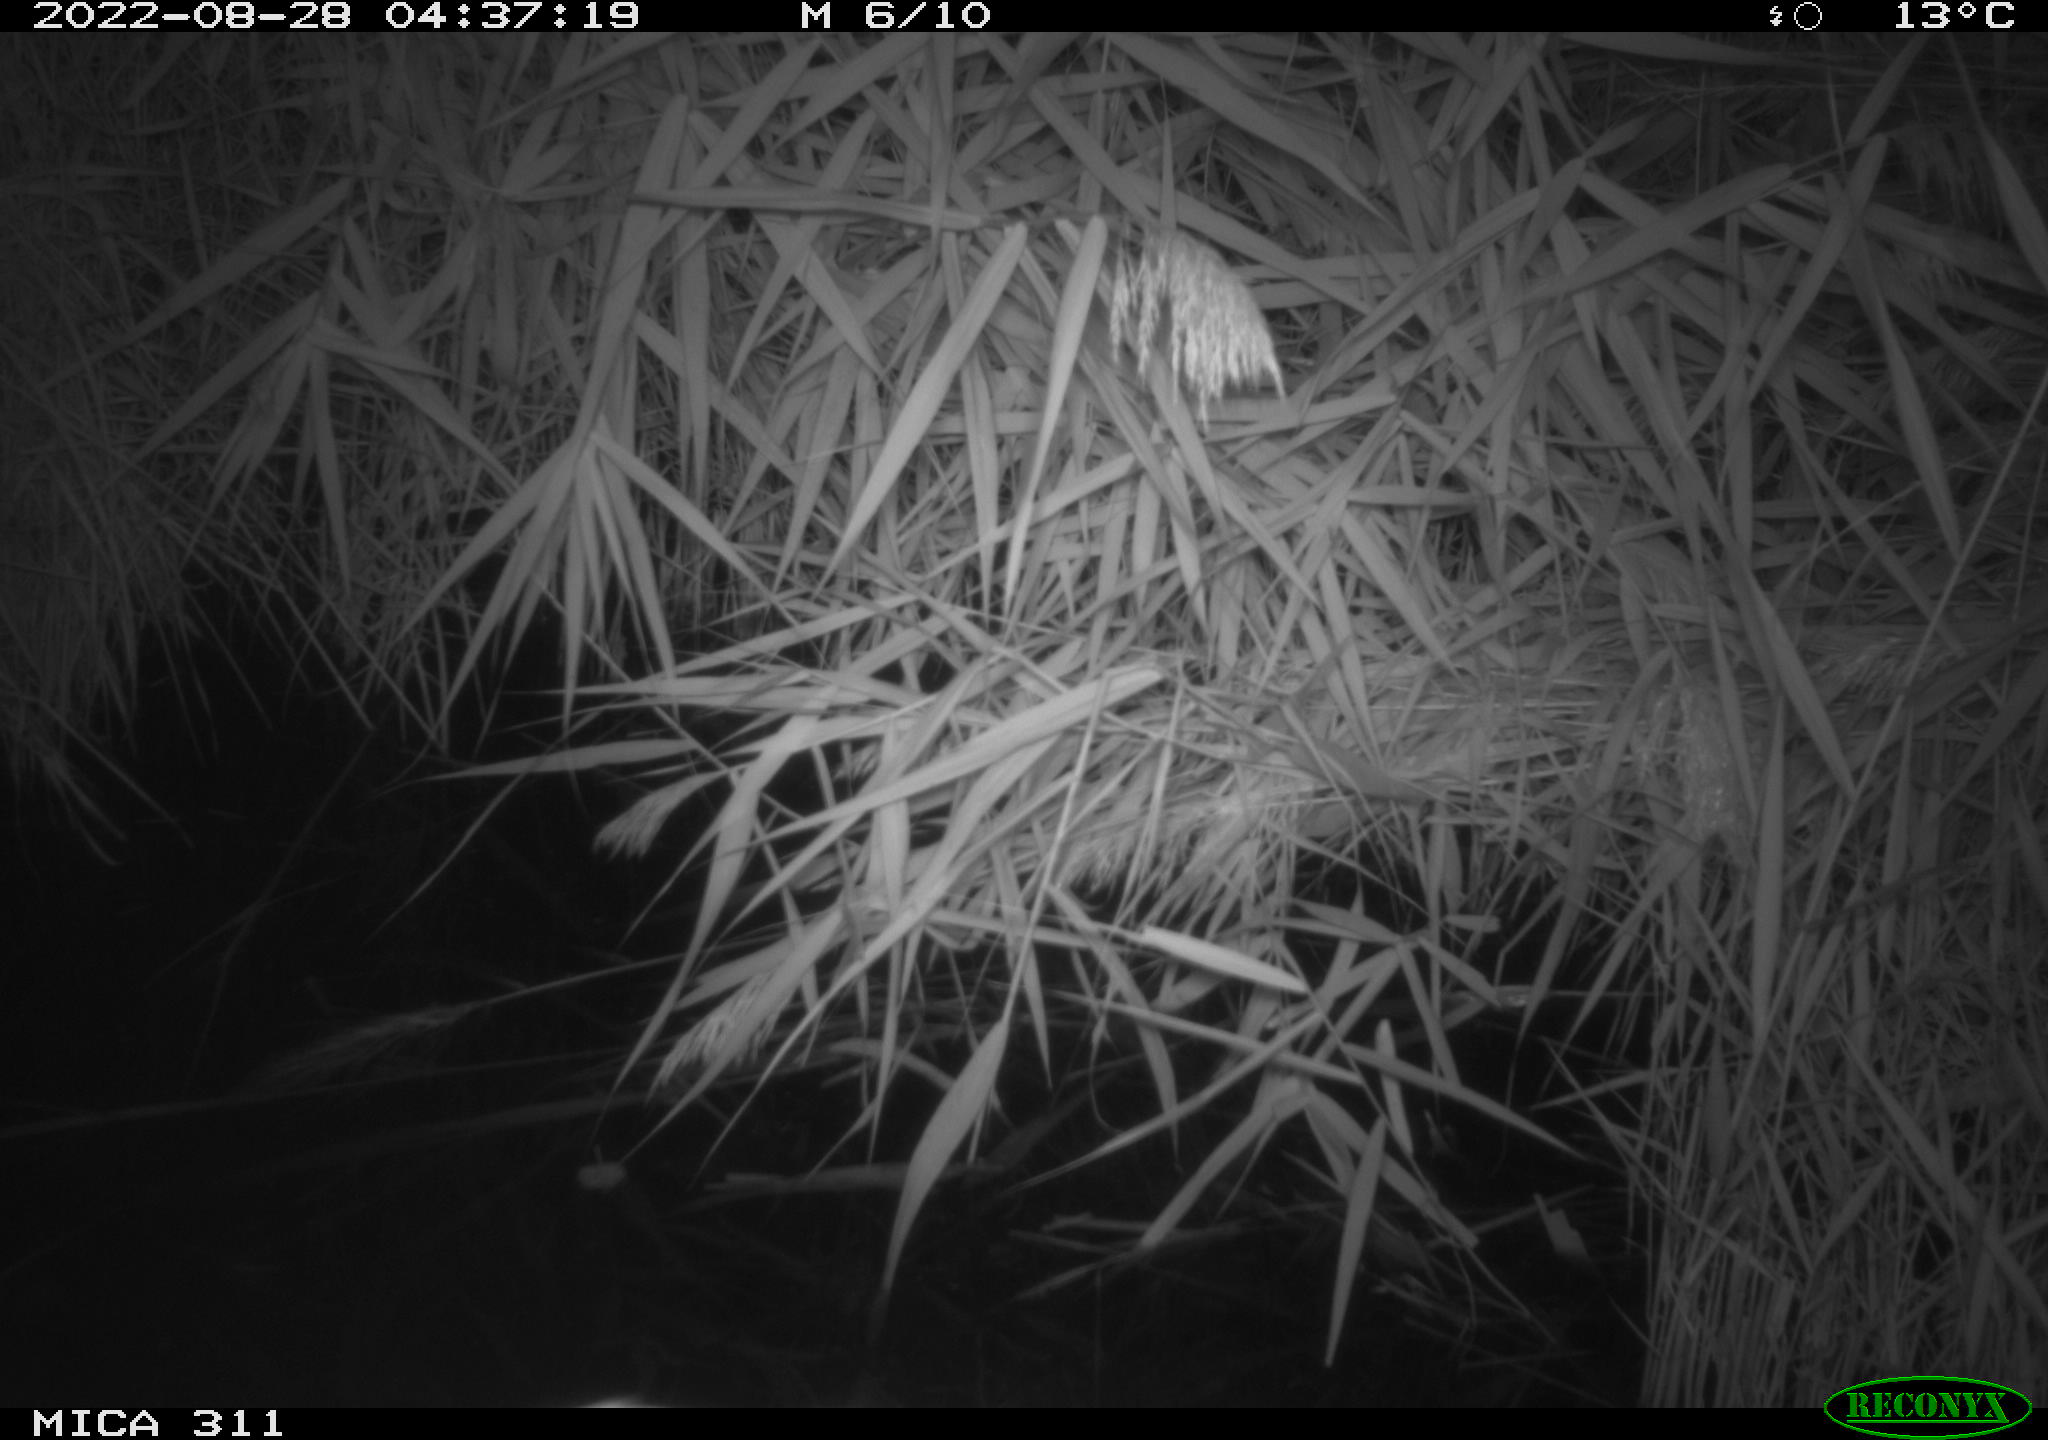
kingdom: Animalia
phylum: Chordata
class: Mammalia
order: Rodentia
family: Muridae
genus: Rattus
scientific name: Rattus norvegicus
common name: Brown rat
